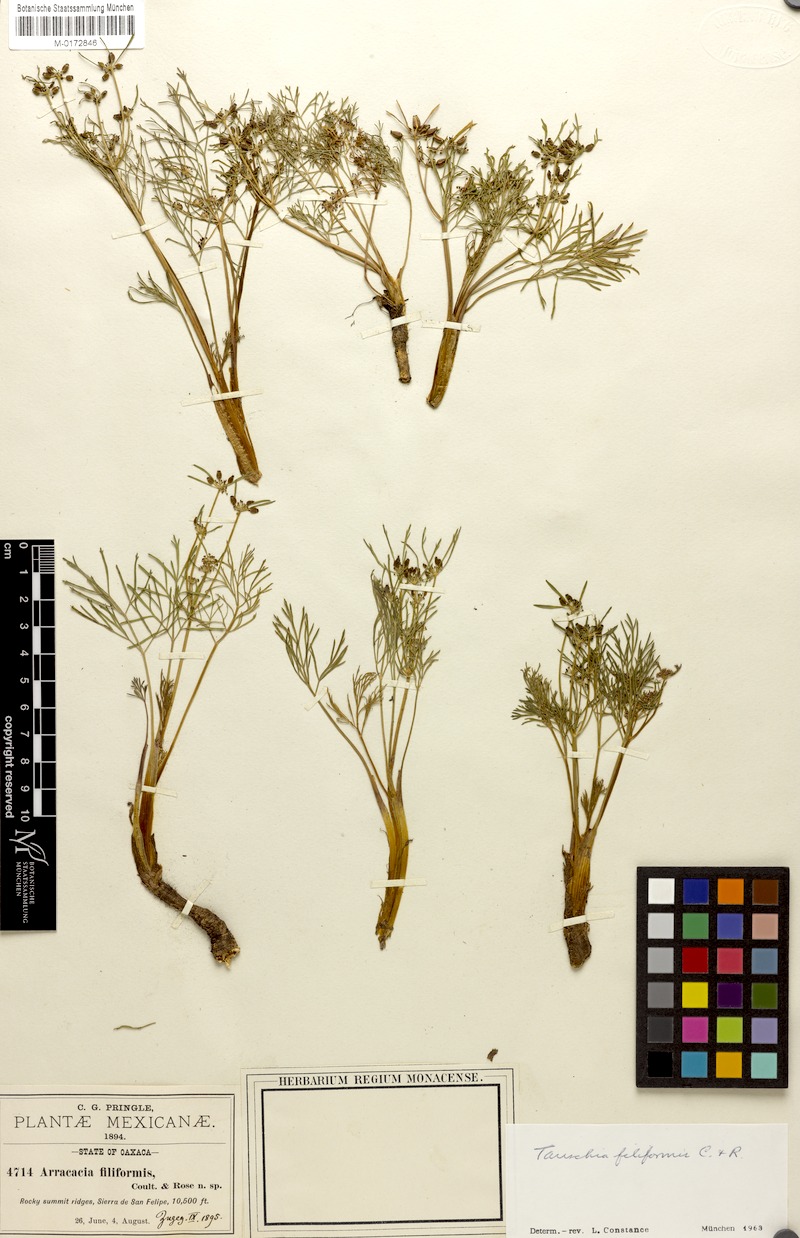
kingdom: Plantae
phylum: Tracheophyta
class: Magnoliopsida
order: Apiales
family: Apiaceae
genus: Tauschia
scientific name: Tauschia filiformis
